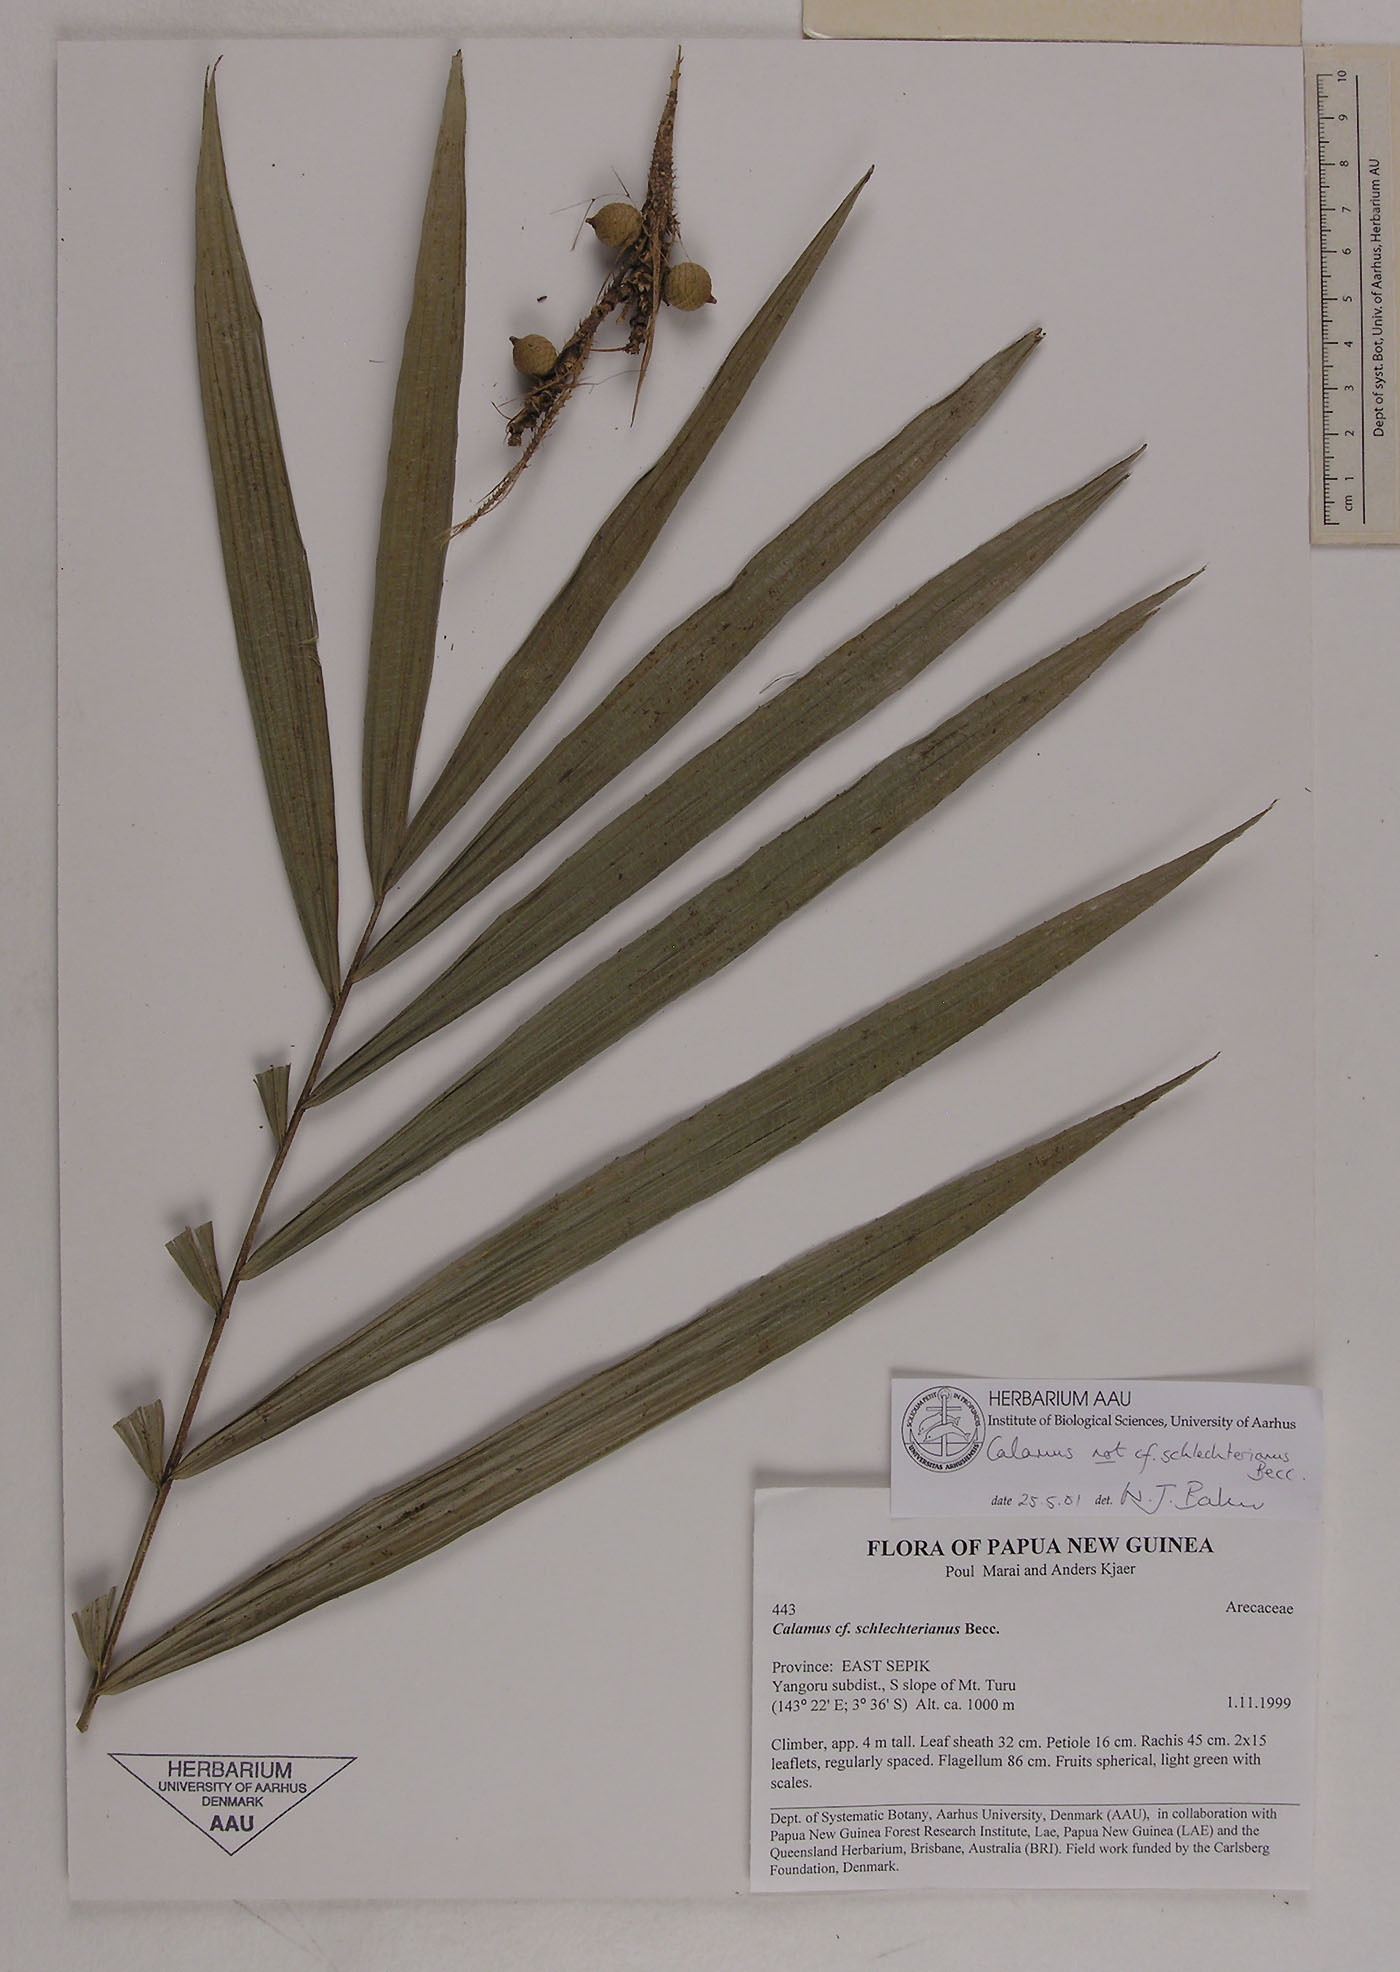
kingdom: Plantae
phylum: Tracheophyta
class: Liliopsida
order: Arecales
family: Arecaceae
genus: Calamus
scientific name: Calamus scabrispathus
